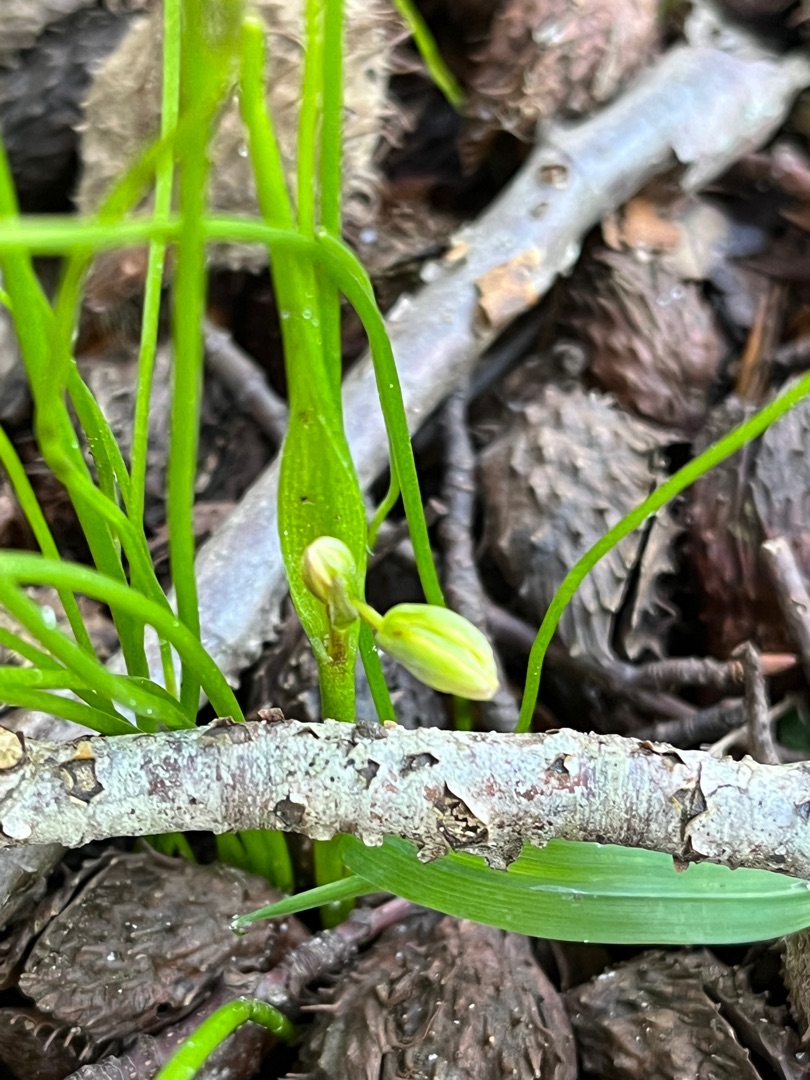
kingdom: Plantae
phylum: Tracheophyta
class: Liliopsida
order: Liliales
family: Liliaceae
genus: Gagea
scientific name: Gagea spathacea
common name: Hylster-guldstjerne
